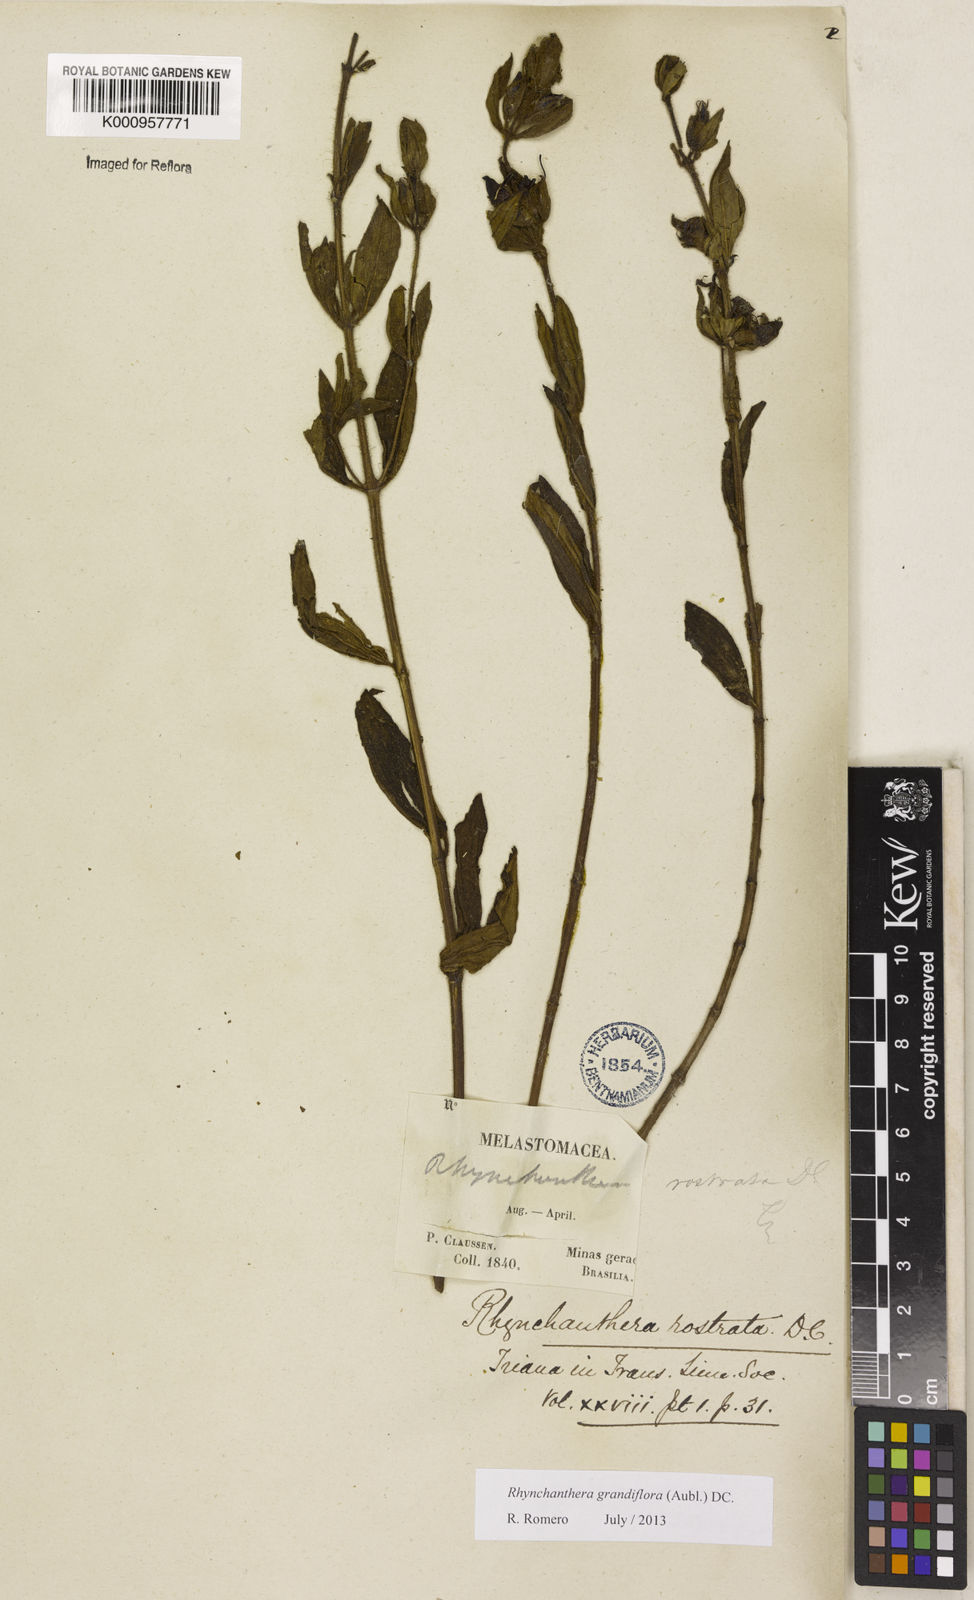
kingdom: Plantae
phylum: Tracheophyta
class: Magnoliopsida
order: Myrtales
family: Melastomataceae
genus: Rhynchanthera
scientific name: Rhynchanthera grandiflora
